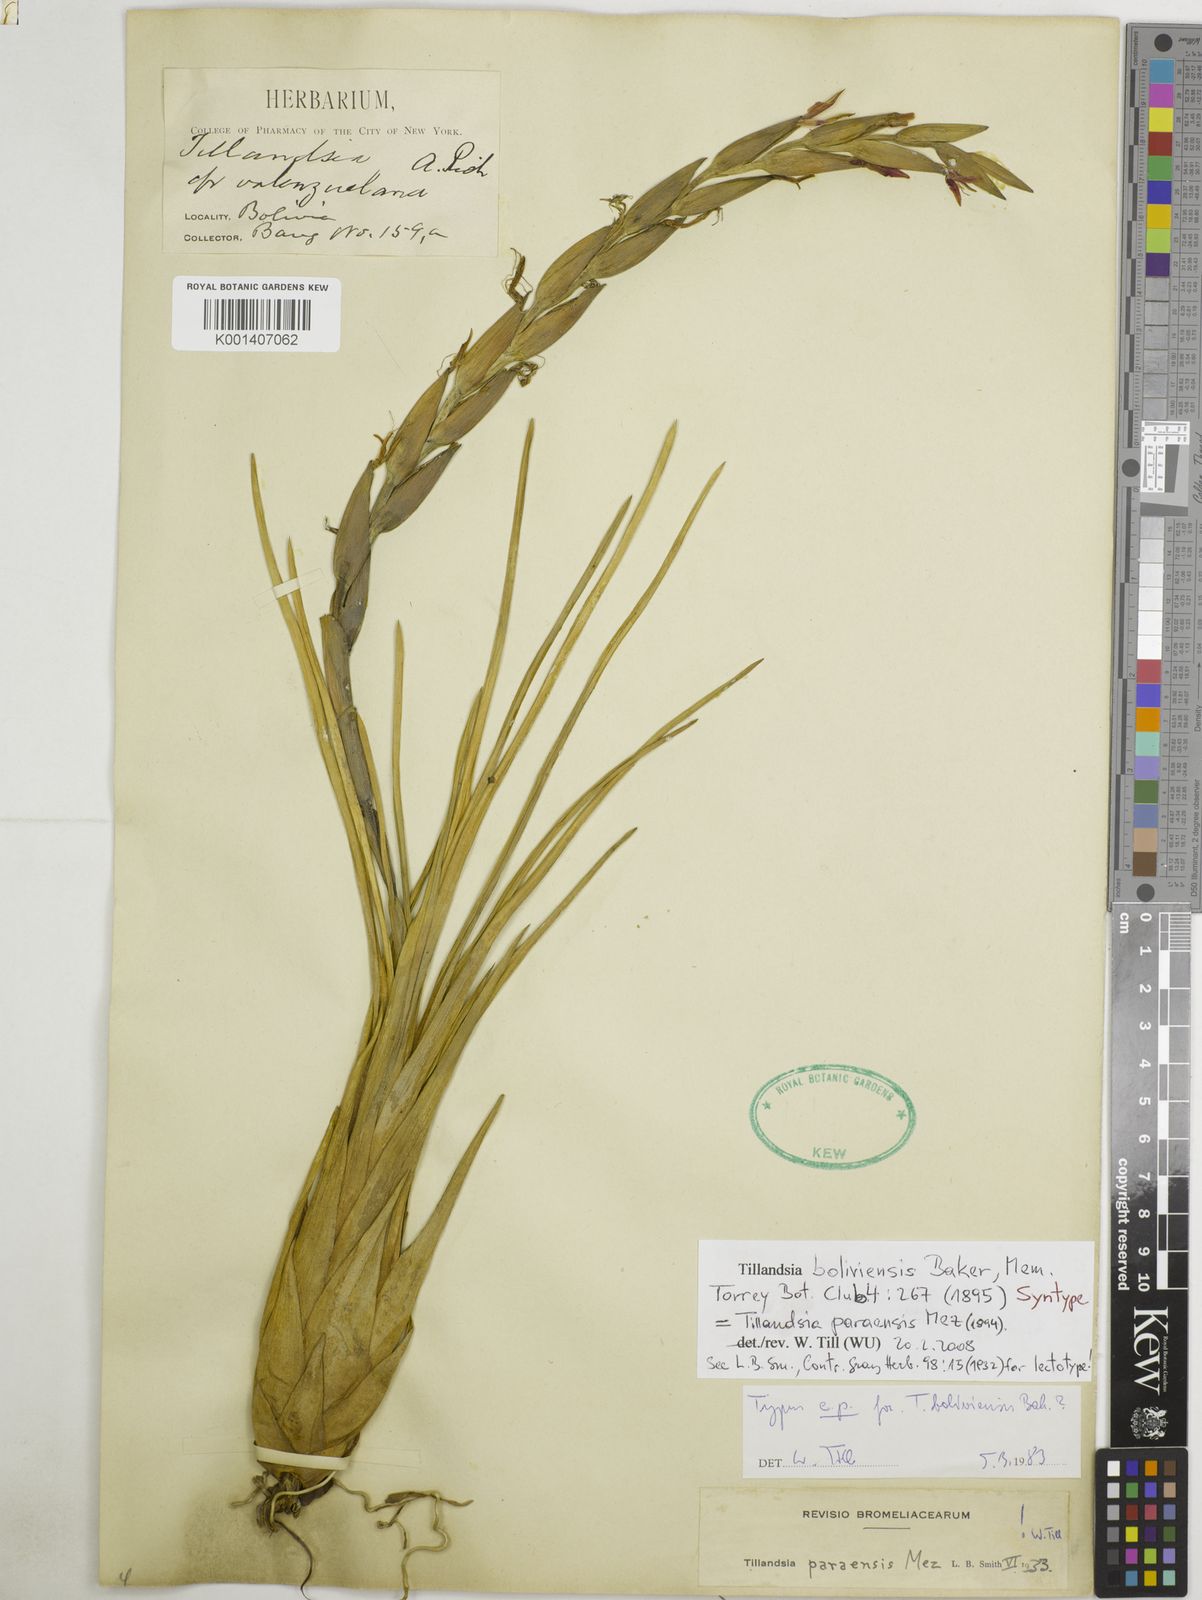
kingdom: Plantae
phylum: Tracheophyta
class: Liliopsida
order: Poales
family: Bromeliaceae
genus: Tillandsia
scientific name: Tillandsia paraensis
